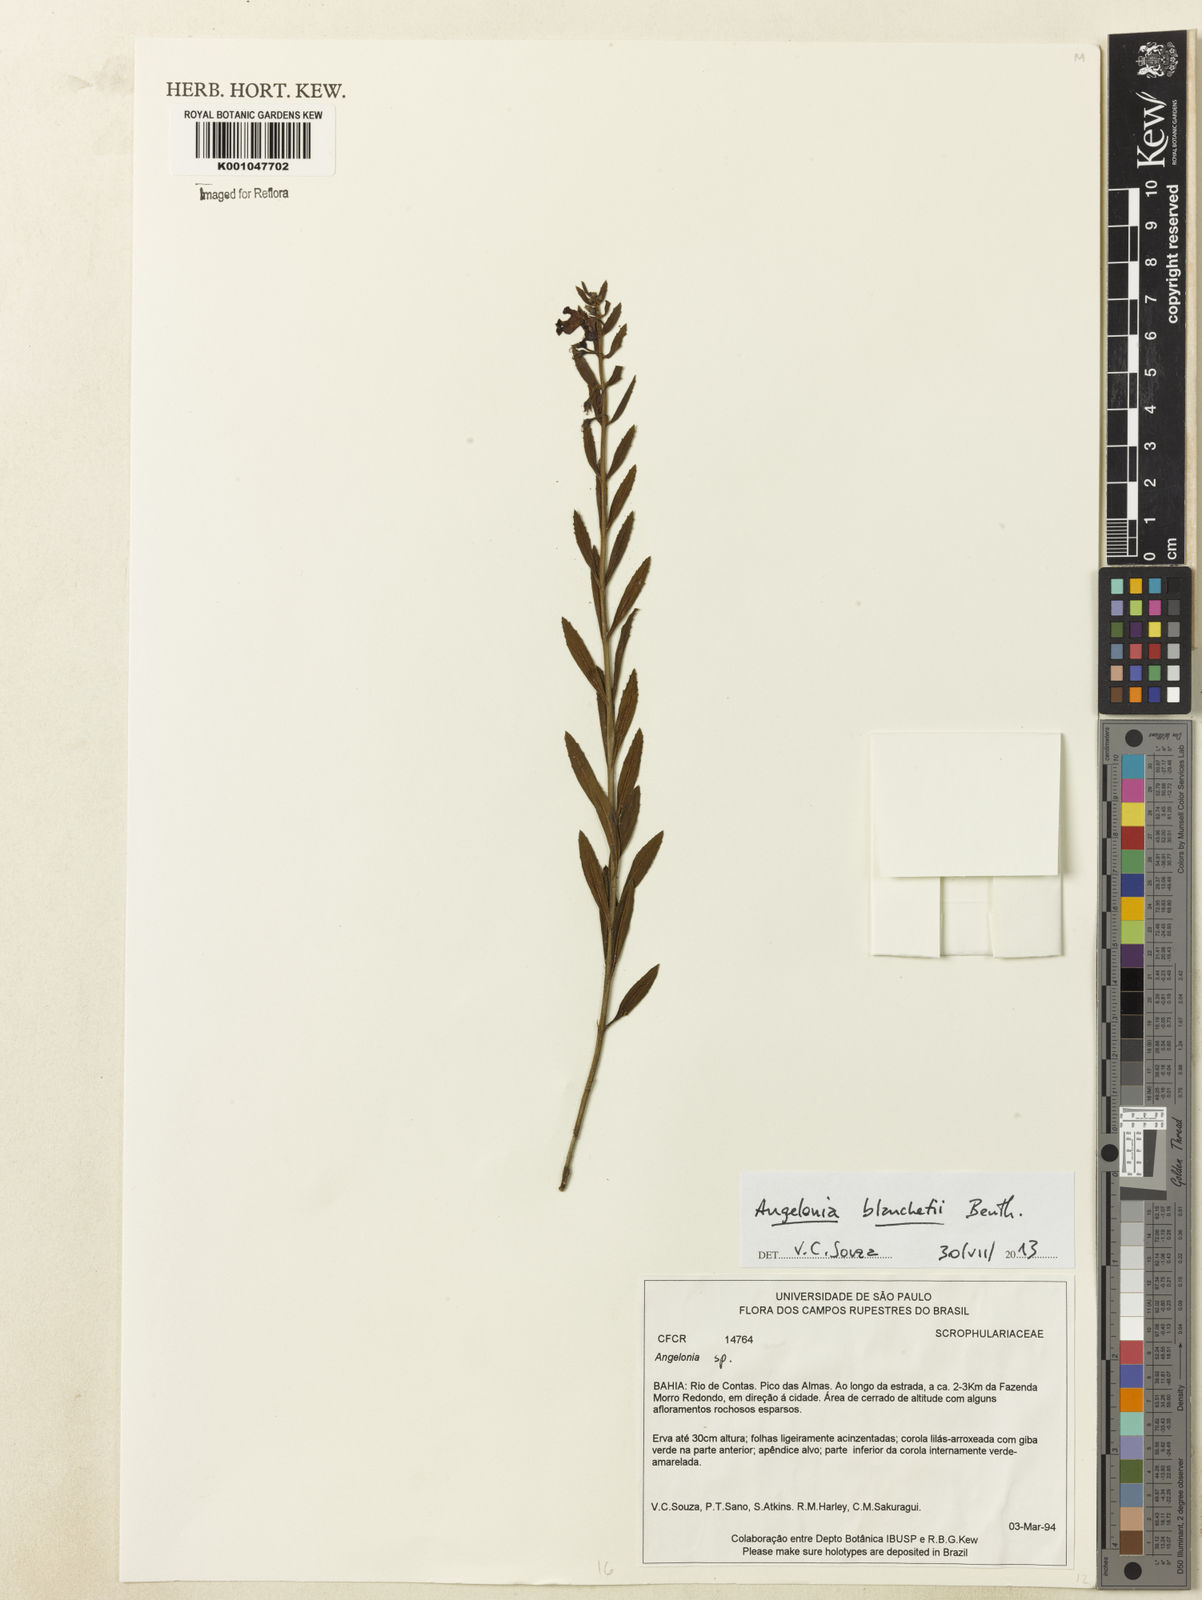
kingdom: Plantae
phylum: Tracheophyta
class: Magnoliopsida
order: Lamiales
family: Plantaginaceae
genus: Angelonia
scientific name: Angelonia blanchetii
